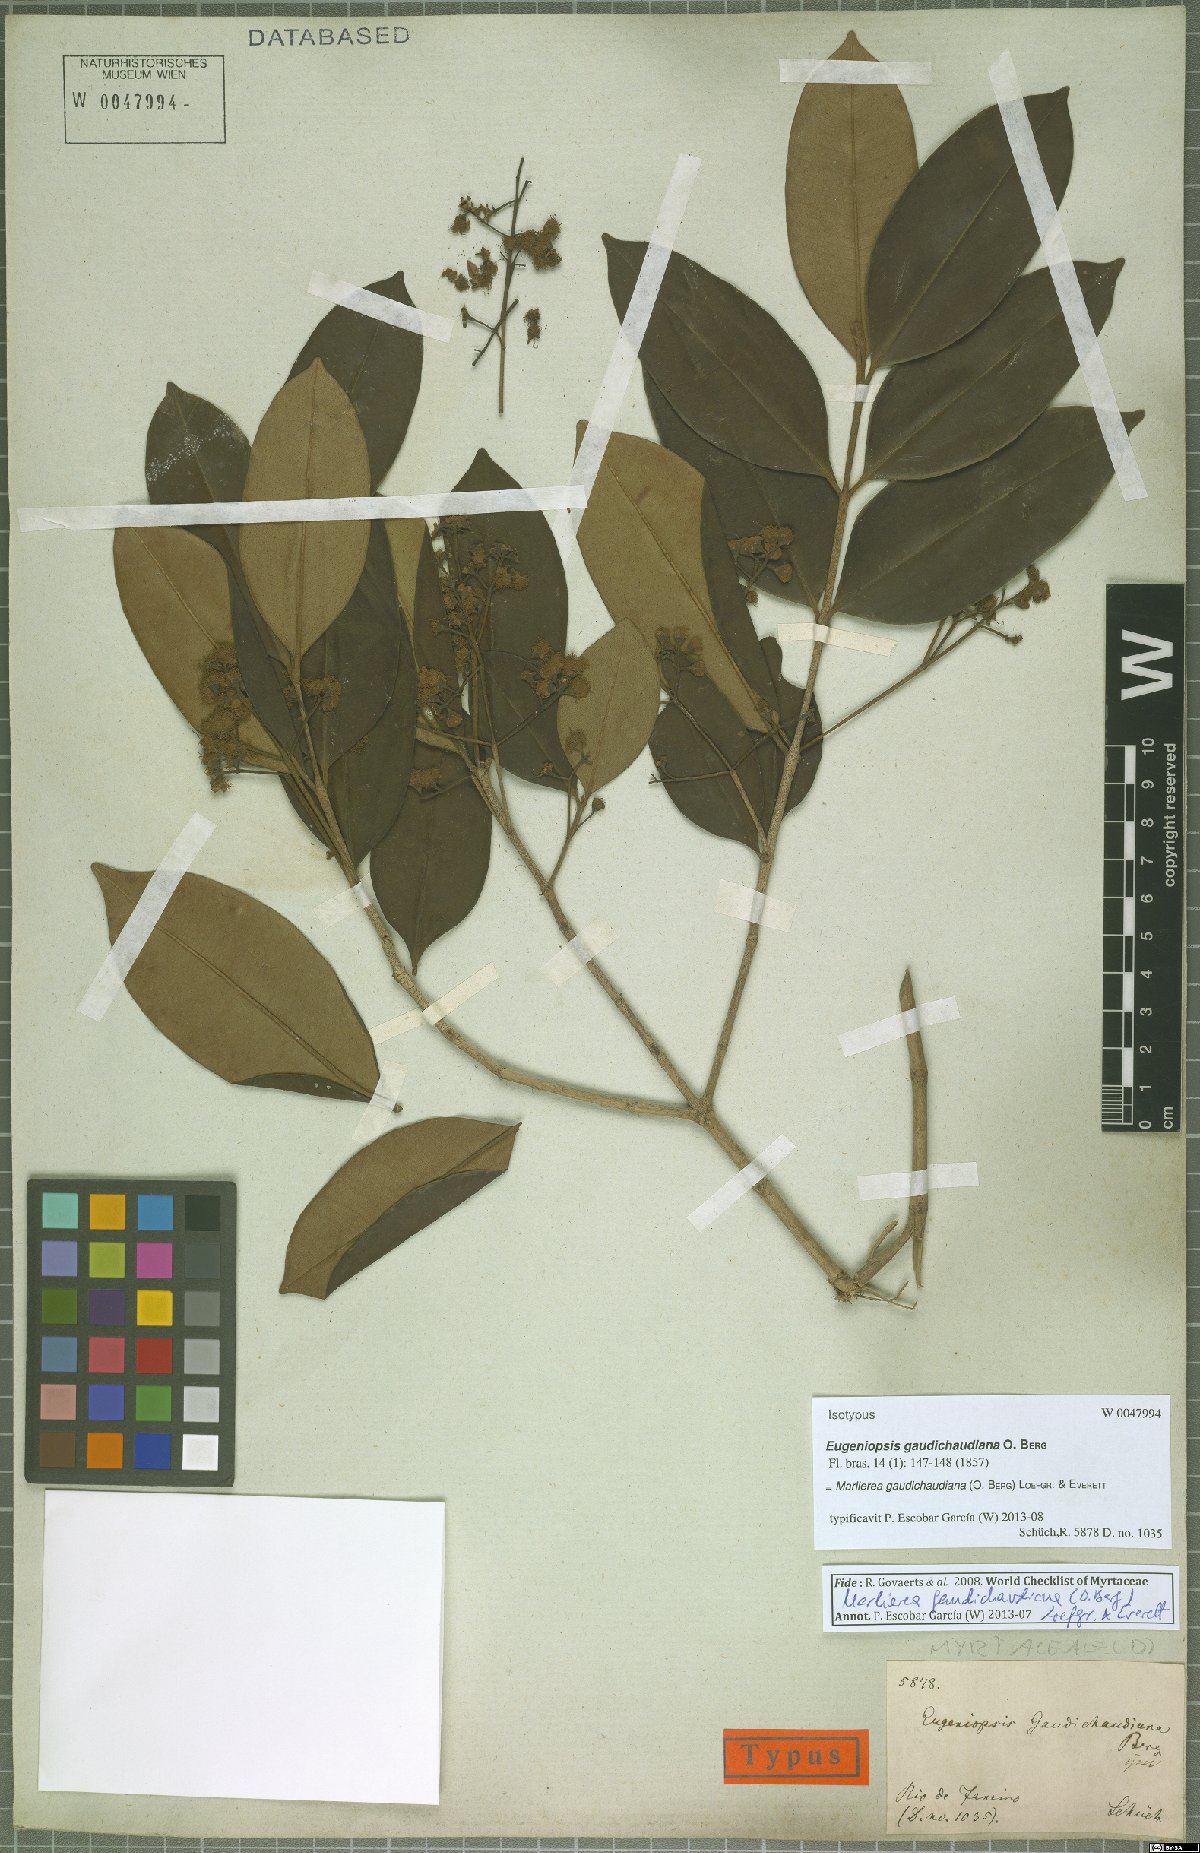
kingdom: Plantae
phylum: Tracheophyta
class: Magnoliopsida
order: Myrtales
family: Myrtaceae
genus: Marlierea
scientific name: Marlierea gaudichaudiana
